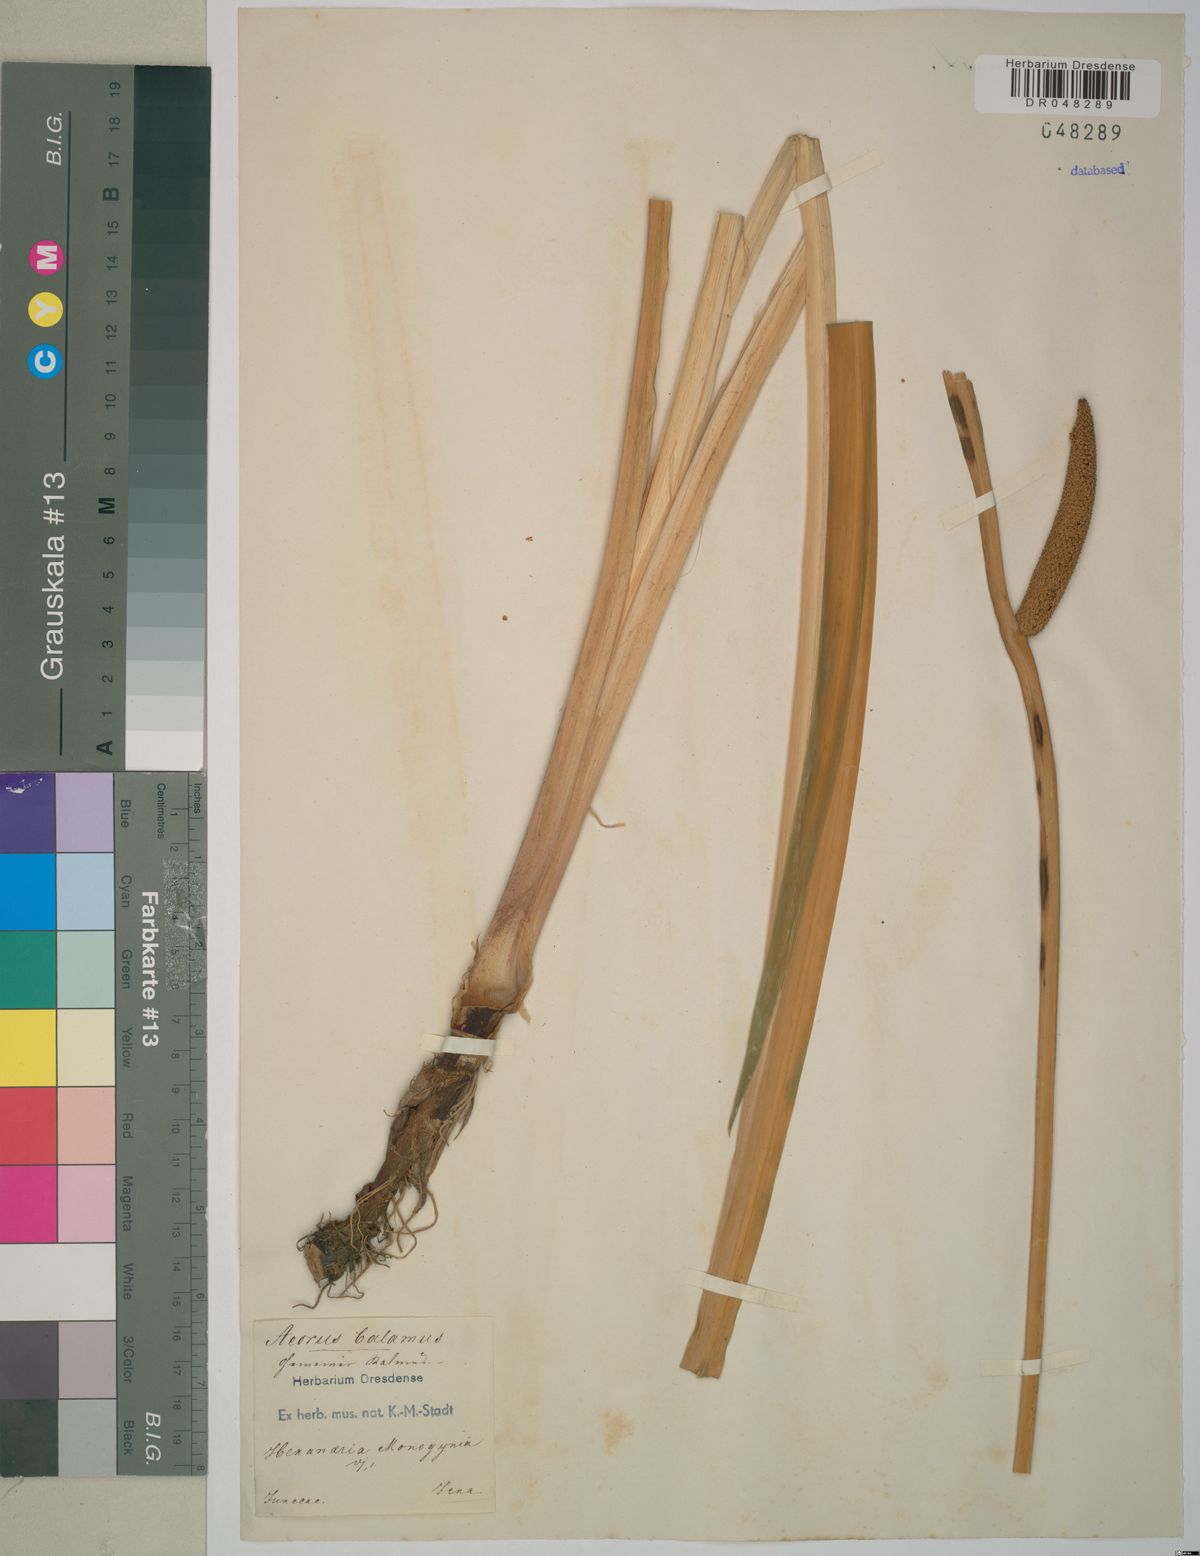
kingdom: Plantae
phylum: Tracheophyta
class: Liliopsida
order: Acorales
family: Acoraceae
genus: Acorus
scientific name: Acorus calamus
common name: Sweet-flag
